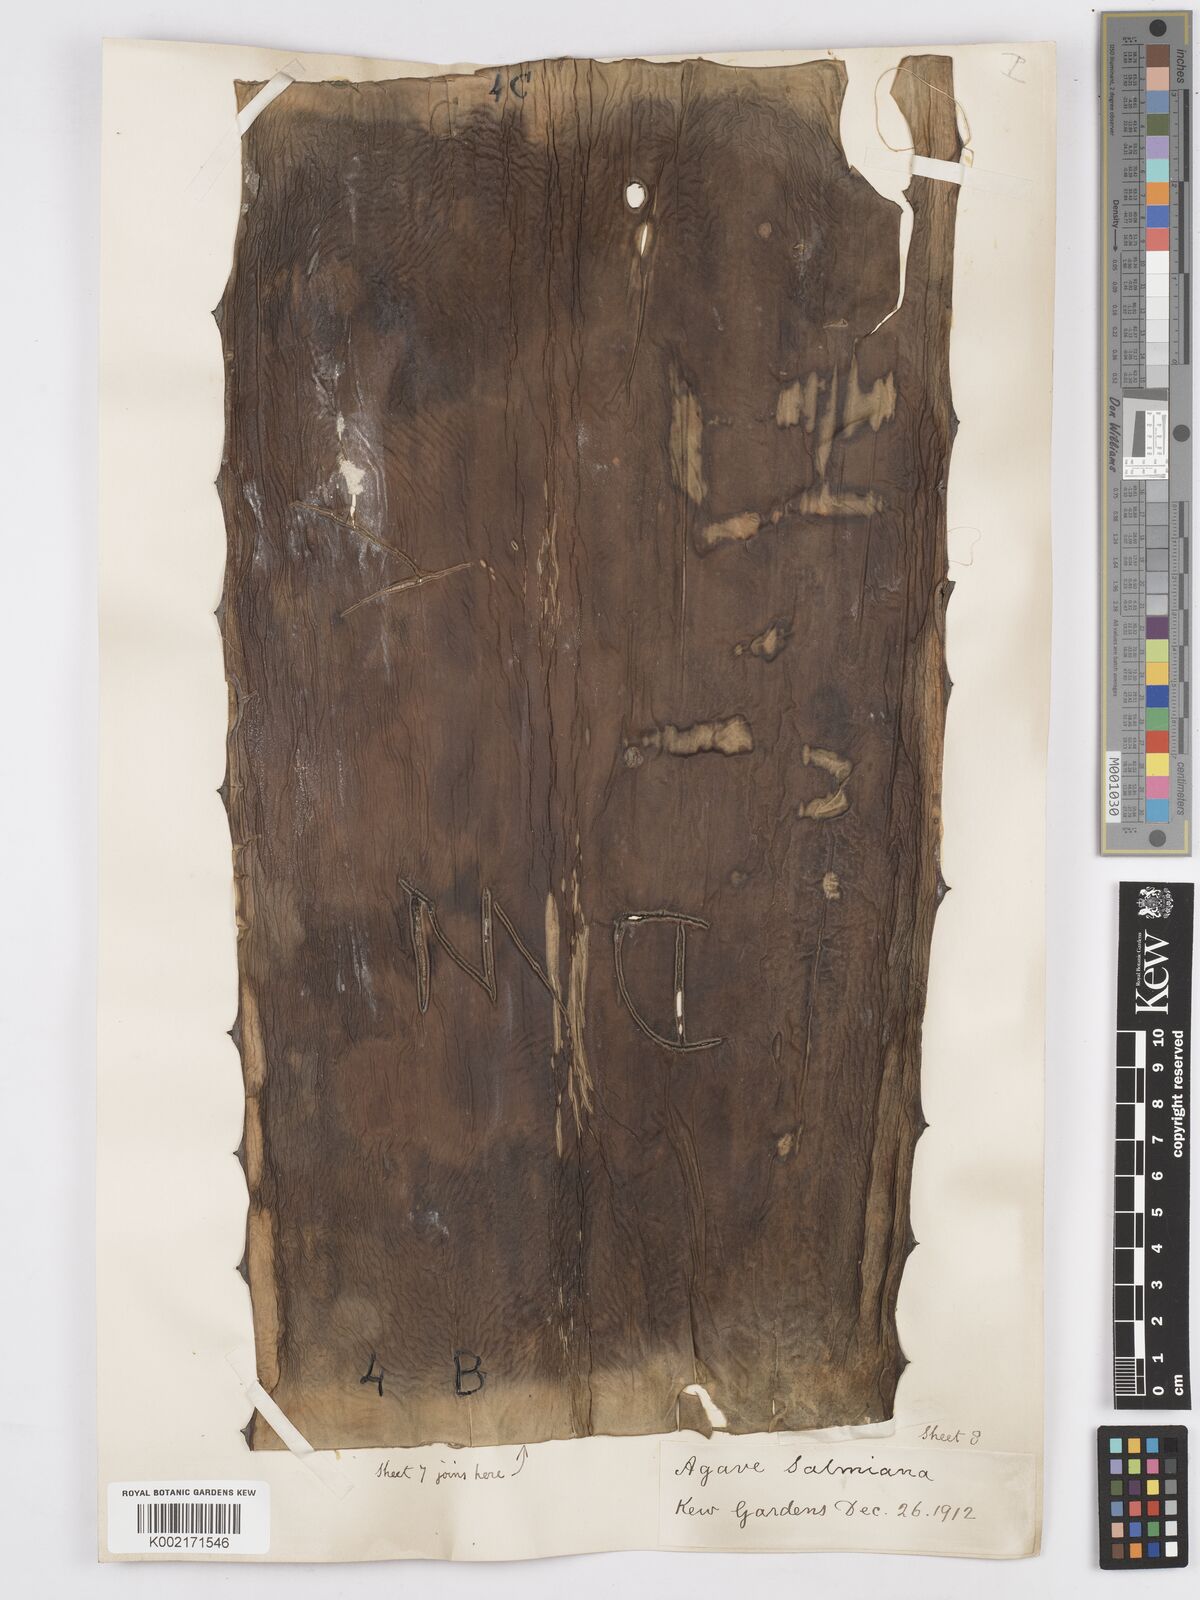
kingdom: Plantae
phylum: Tracheophyta
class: Liliopsida
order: Asparagales
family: Asparagaceae
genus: Agave
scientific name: Agave salmiana
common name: Pulque agave
